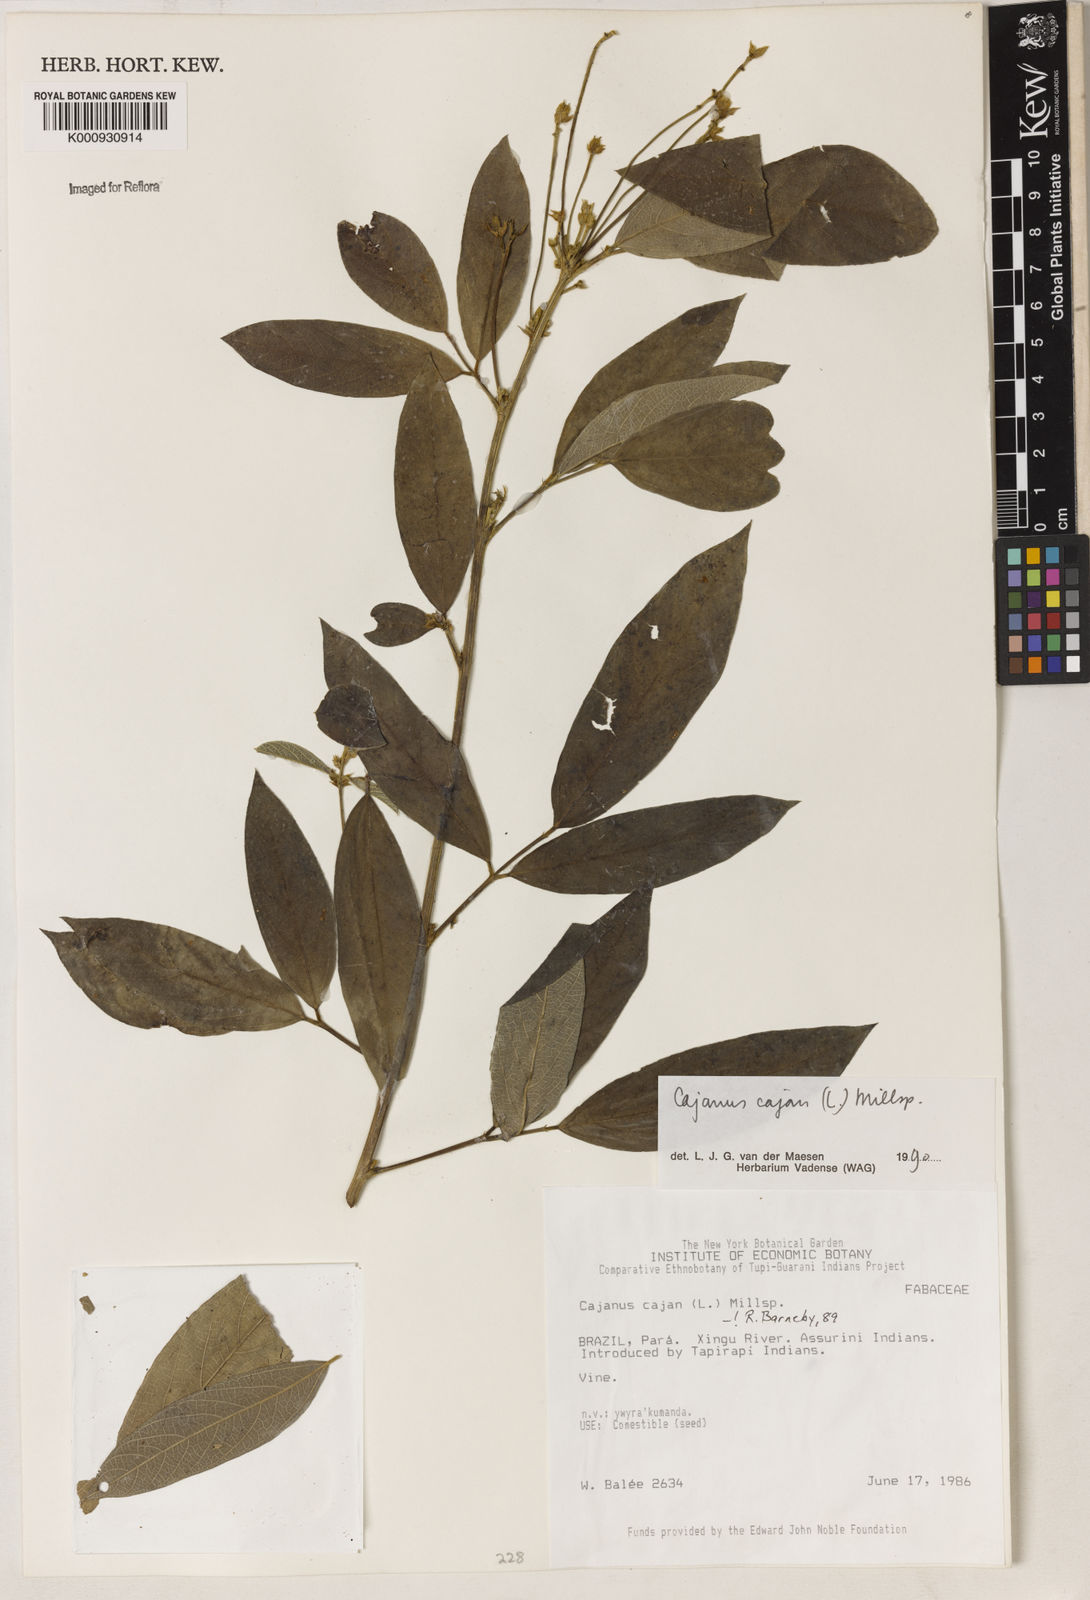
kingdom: Plantae
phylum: Tracheophyta
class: Magnoliopsida
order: Fabales
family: Fabaceae
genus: Cajanus
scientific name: Cajanus
